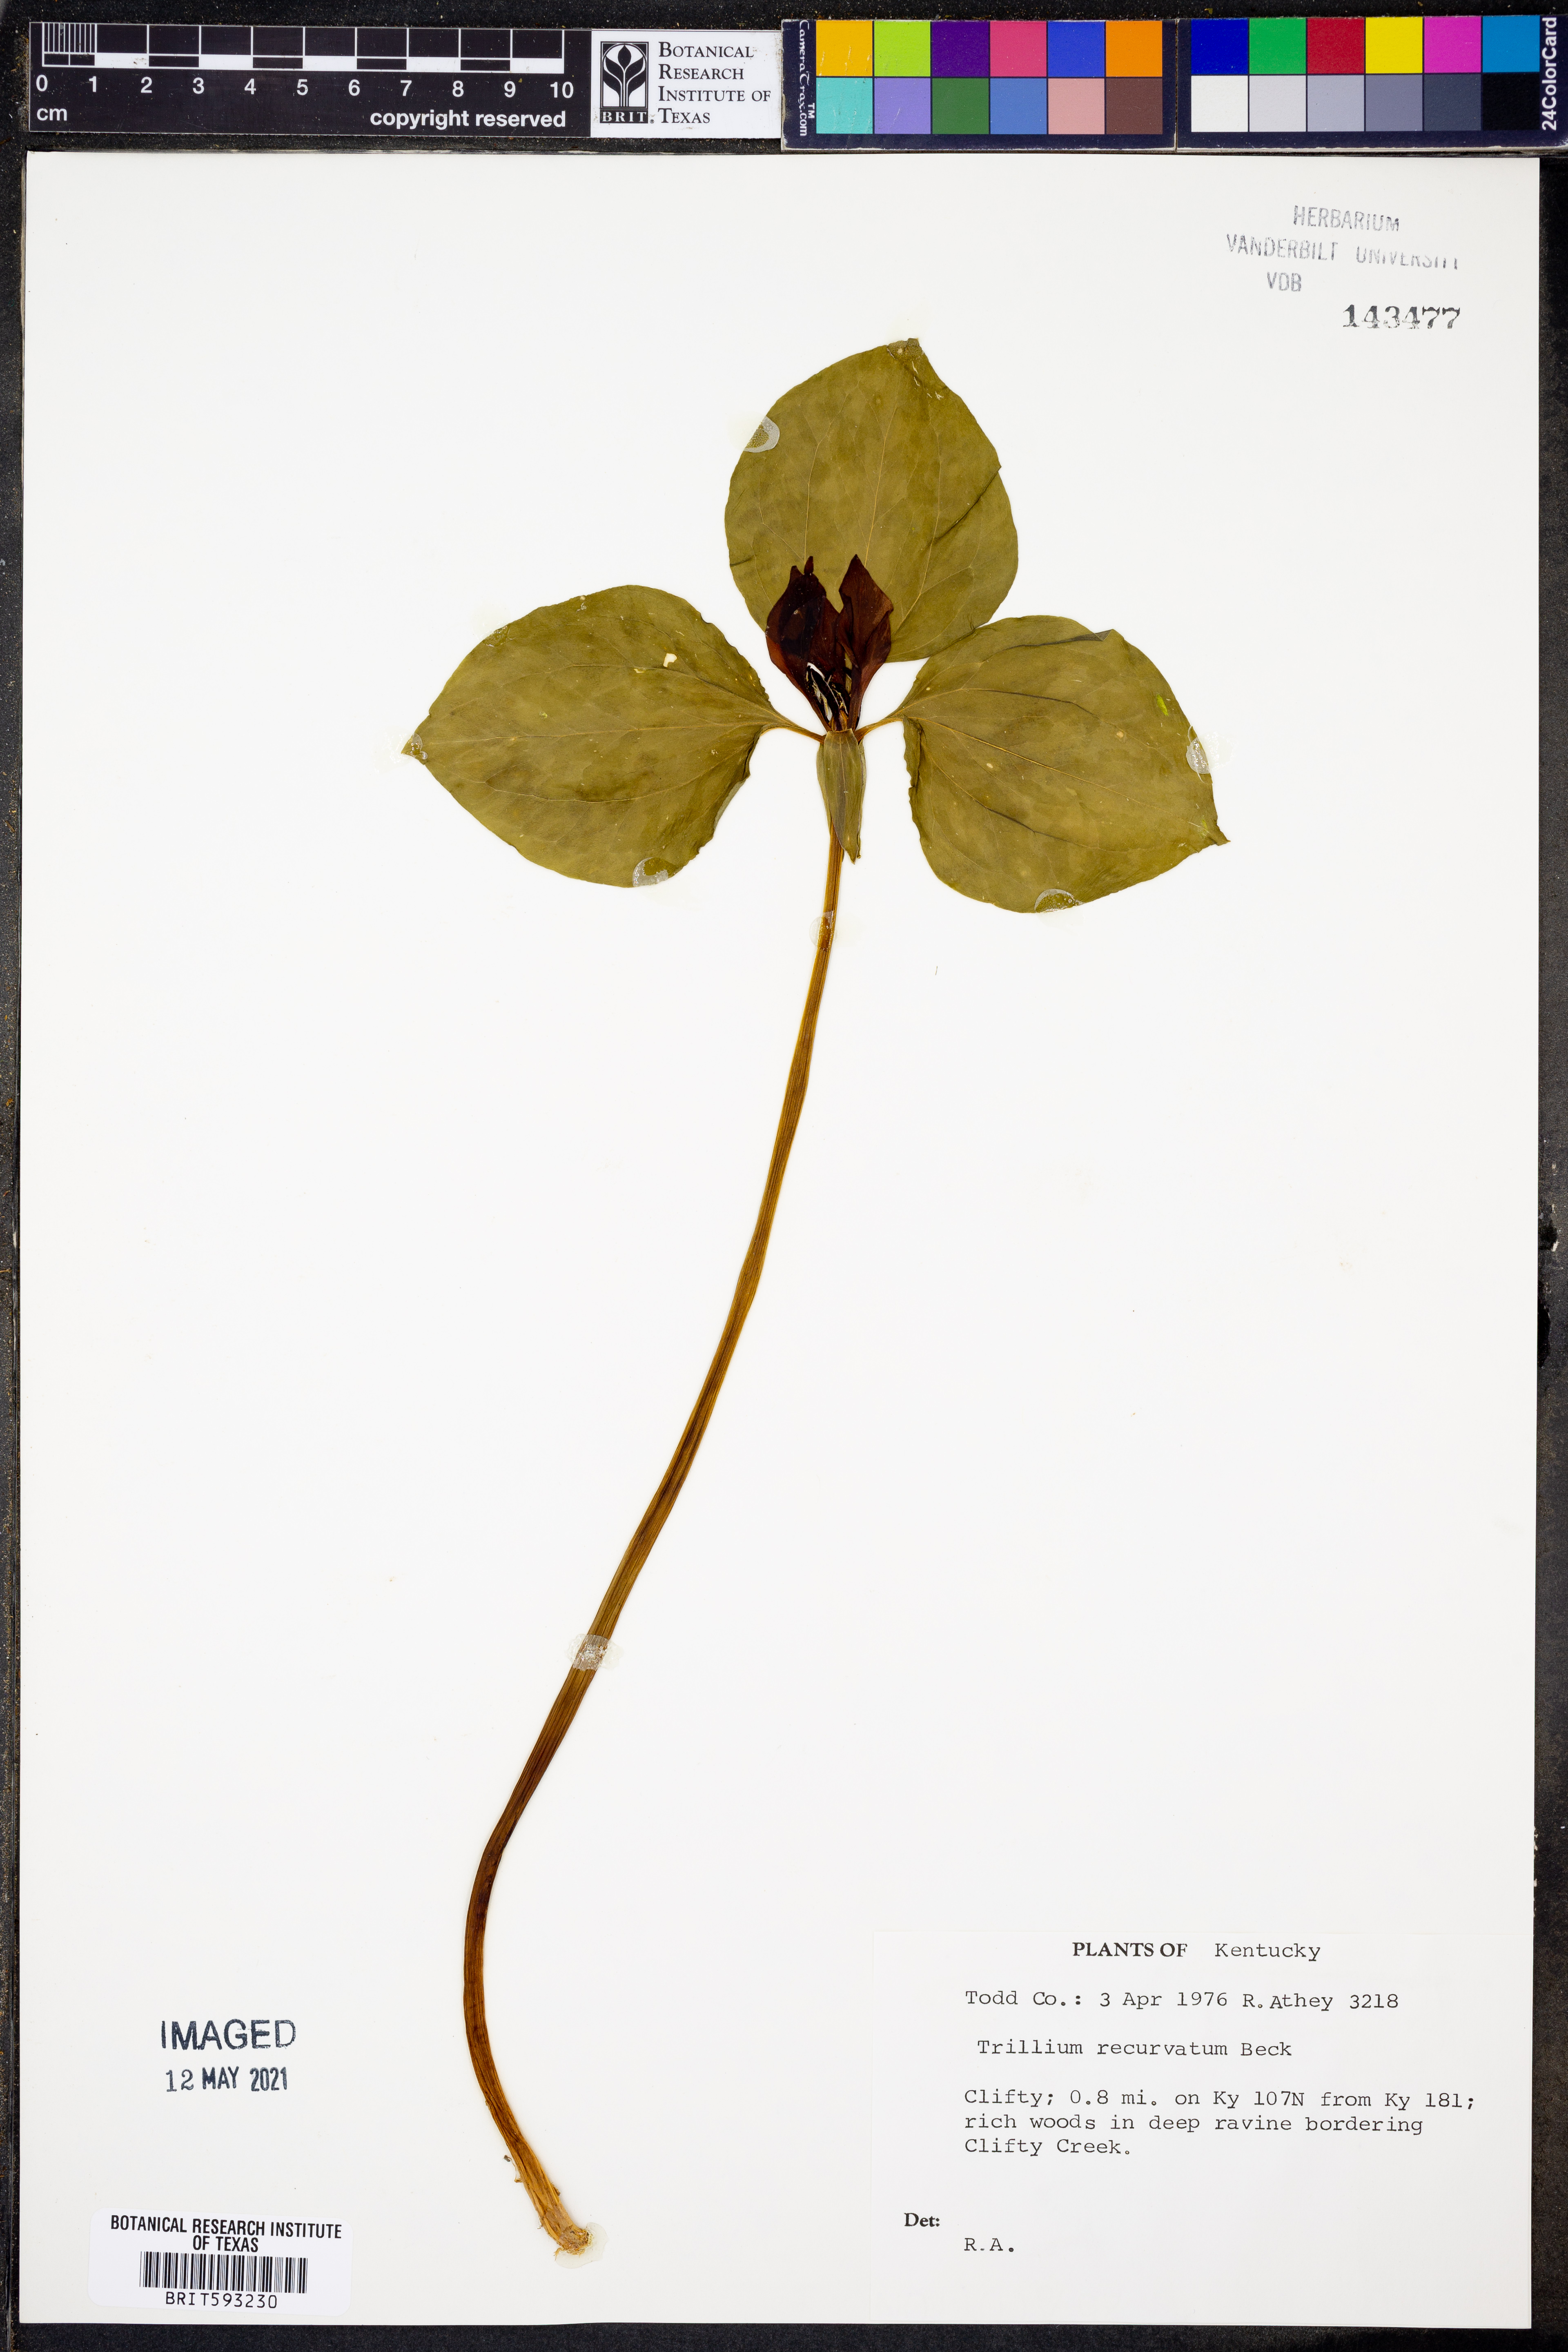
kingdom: Plantae
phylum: Tracheophyta
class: Liliopsida
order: Liliales
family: Melanthiaceae
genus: Trillium
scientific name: Trillium recurvatum
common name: Bloody butcher
